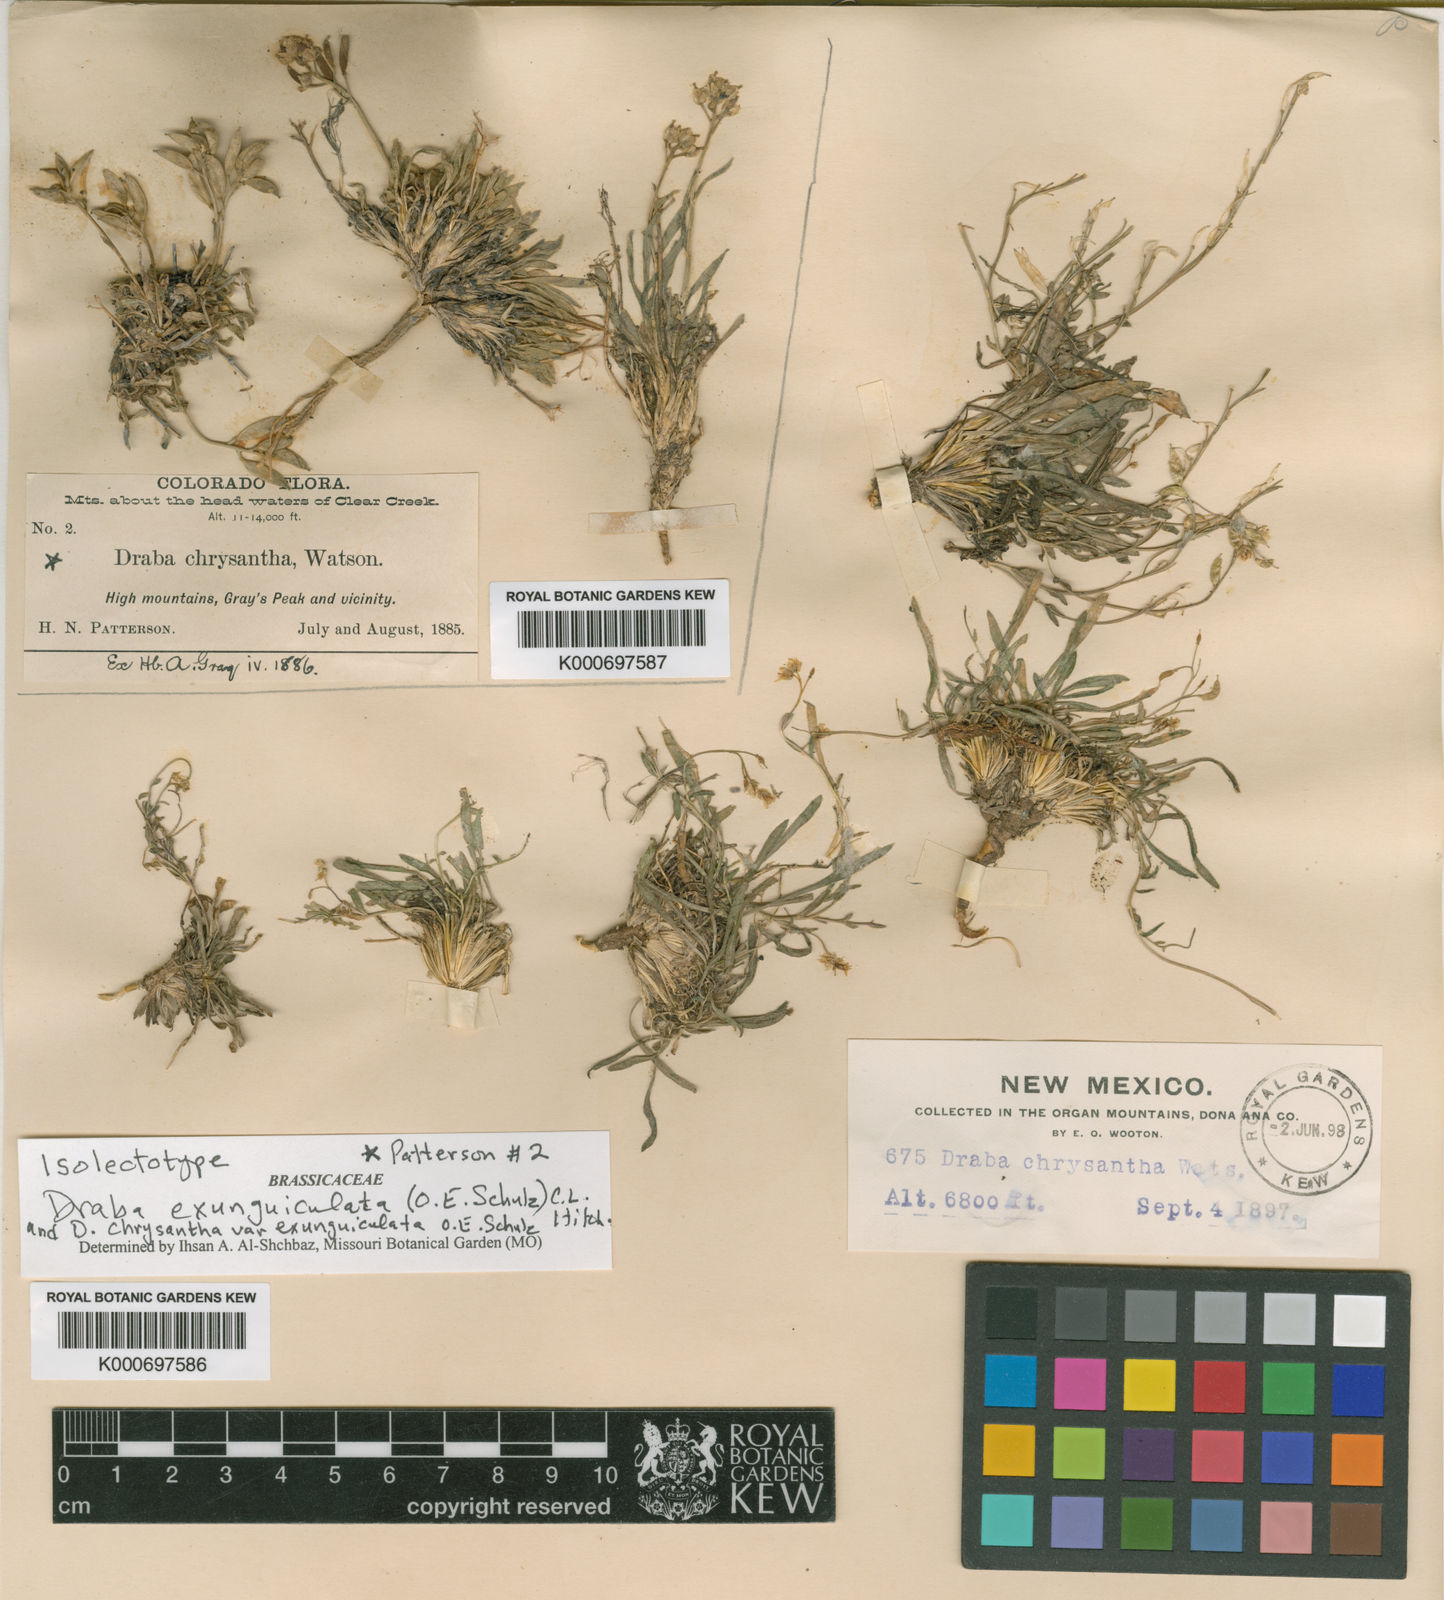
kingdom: Plantae
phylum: Tracheophyta
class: Magnoliopsida
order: Brassicales
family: Brassicaceae
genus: Draba
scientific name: Draba exunguiculata
